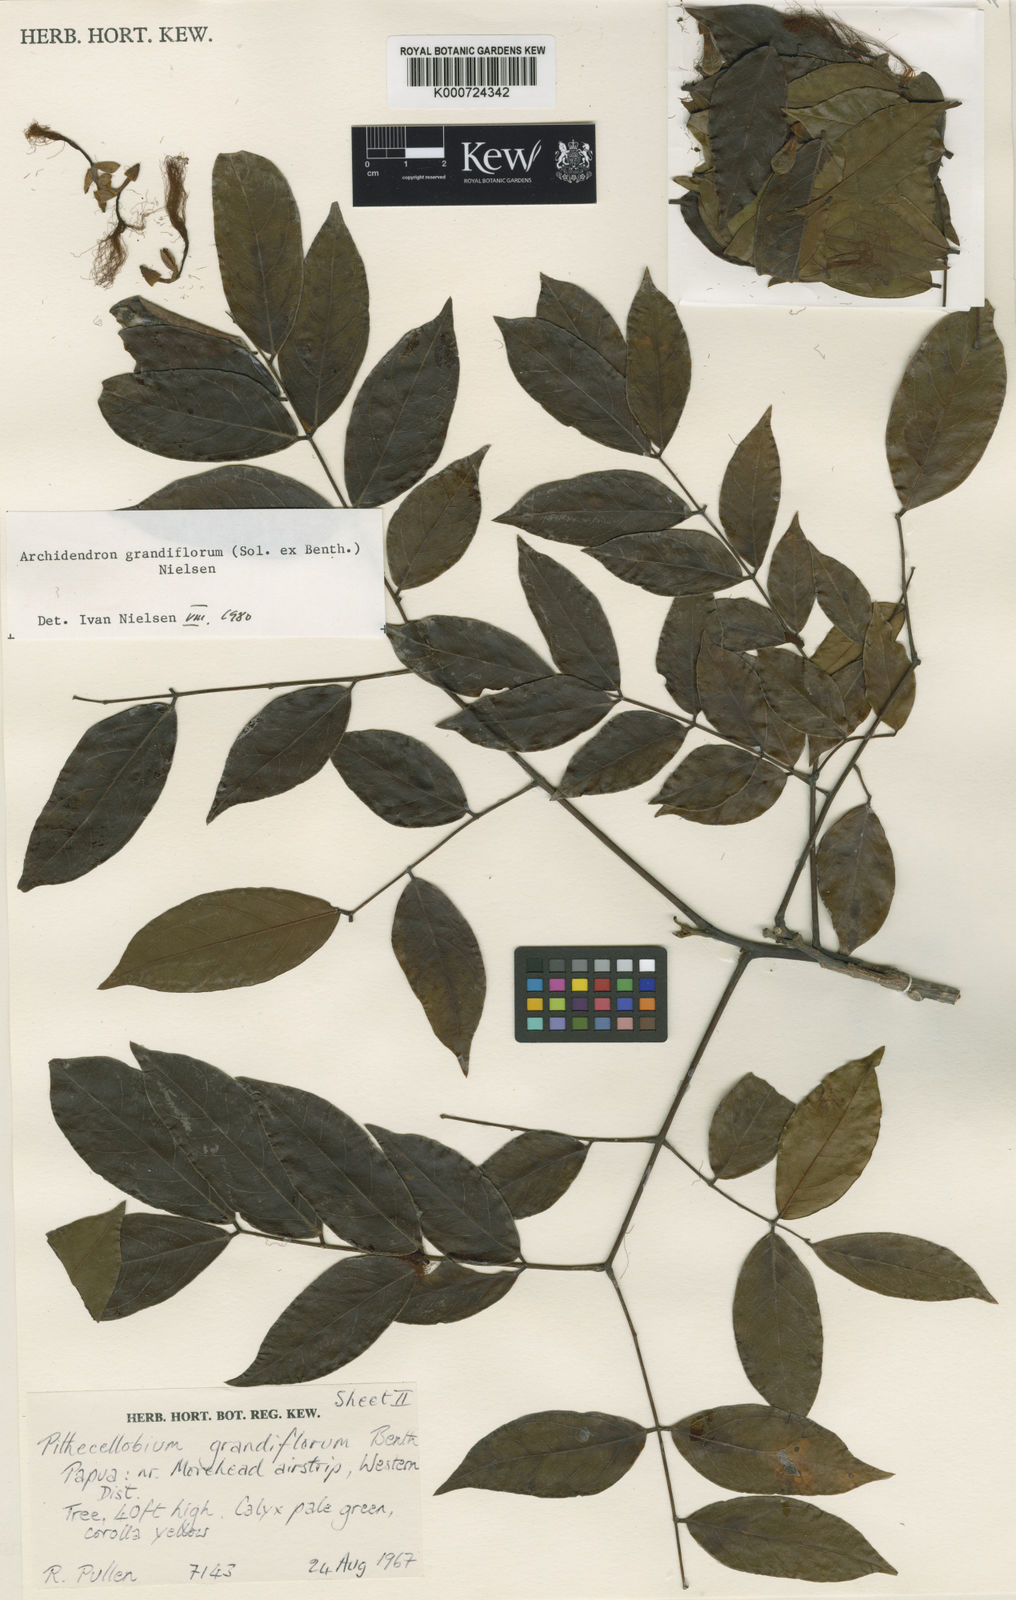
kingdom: Plantae
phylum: Tracheophyta
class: Magnoliopsida
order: Fabales
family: Fabaceae
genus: Archidendron
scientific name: Archidendron grandiflorum
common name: Tulip siris
